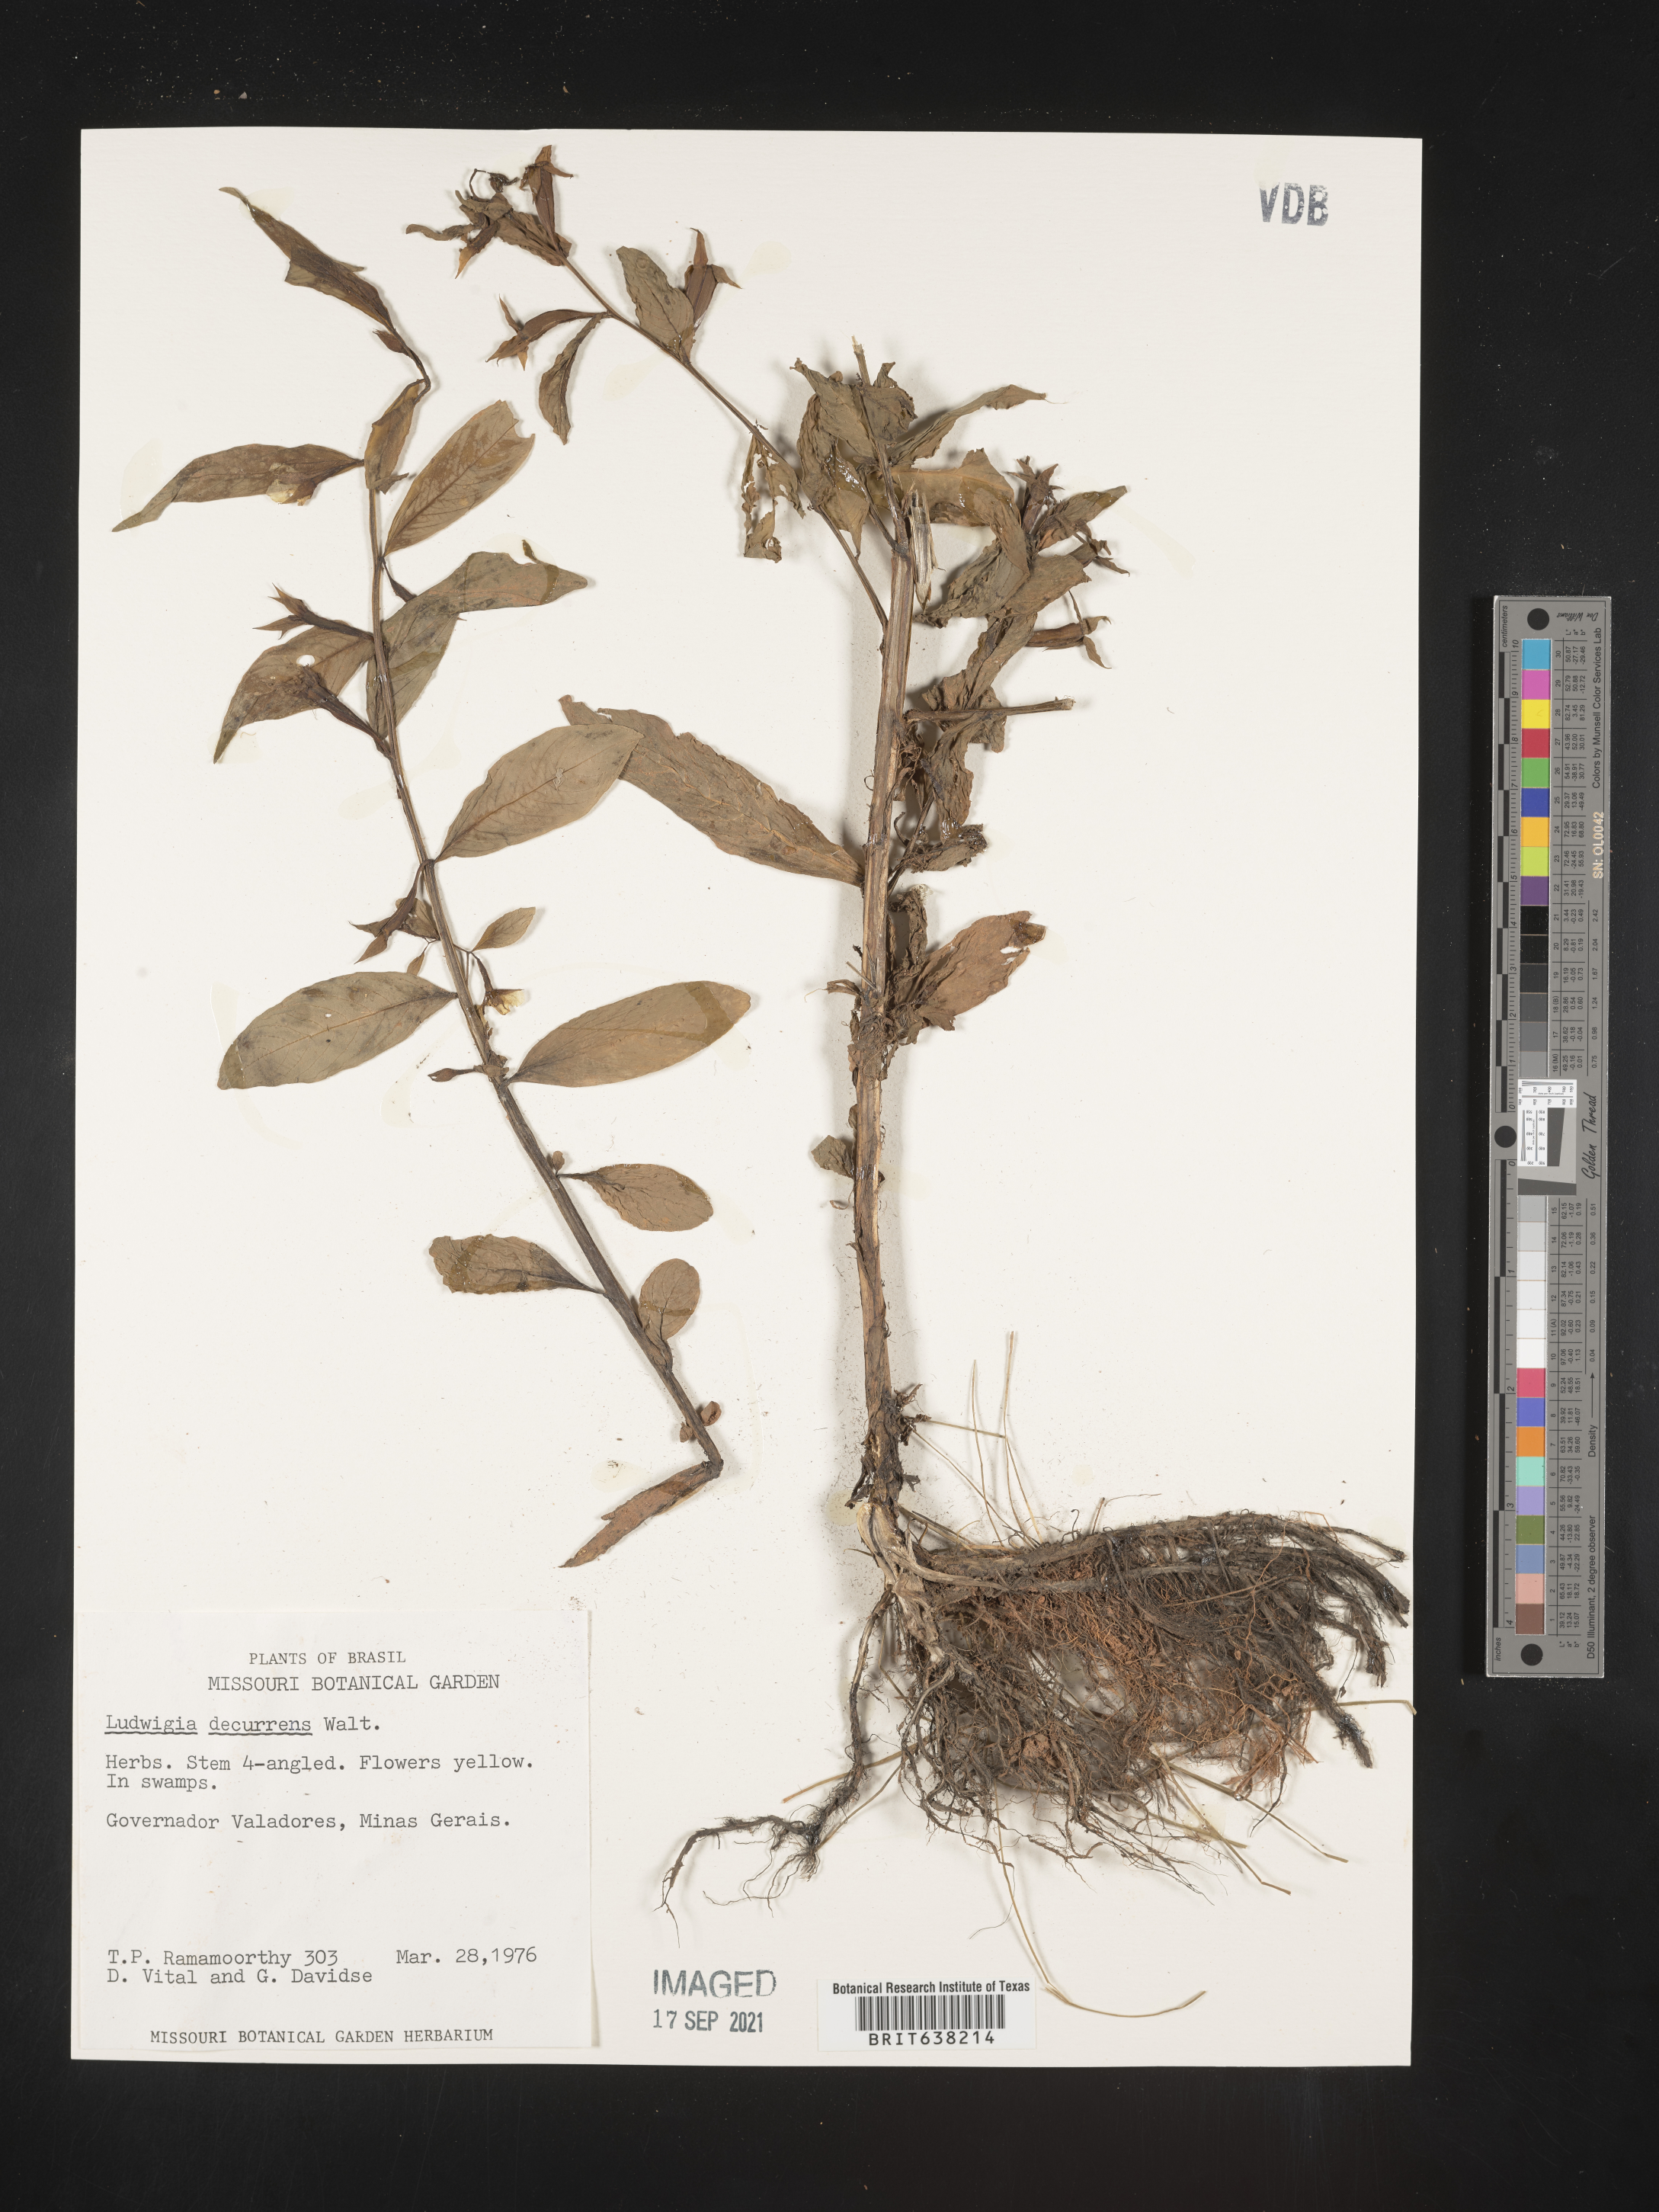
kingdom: Plantae
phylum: Tracheophyta
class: Magnoliopsida
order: Myrtales
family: Onagraceae
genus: Ludwigia
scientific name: Ludwigia
